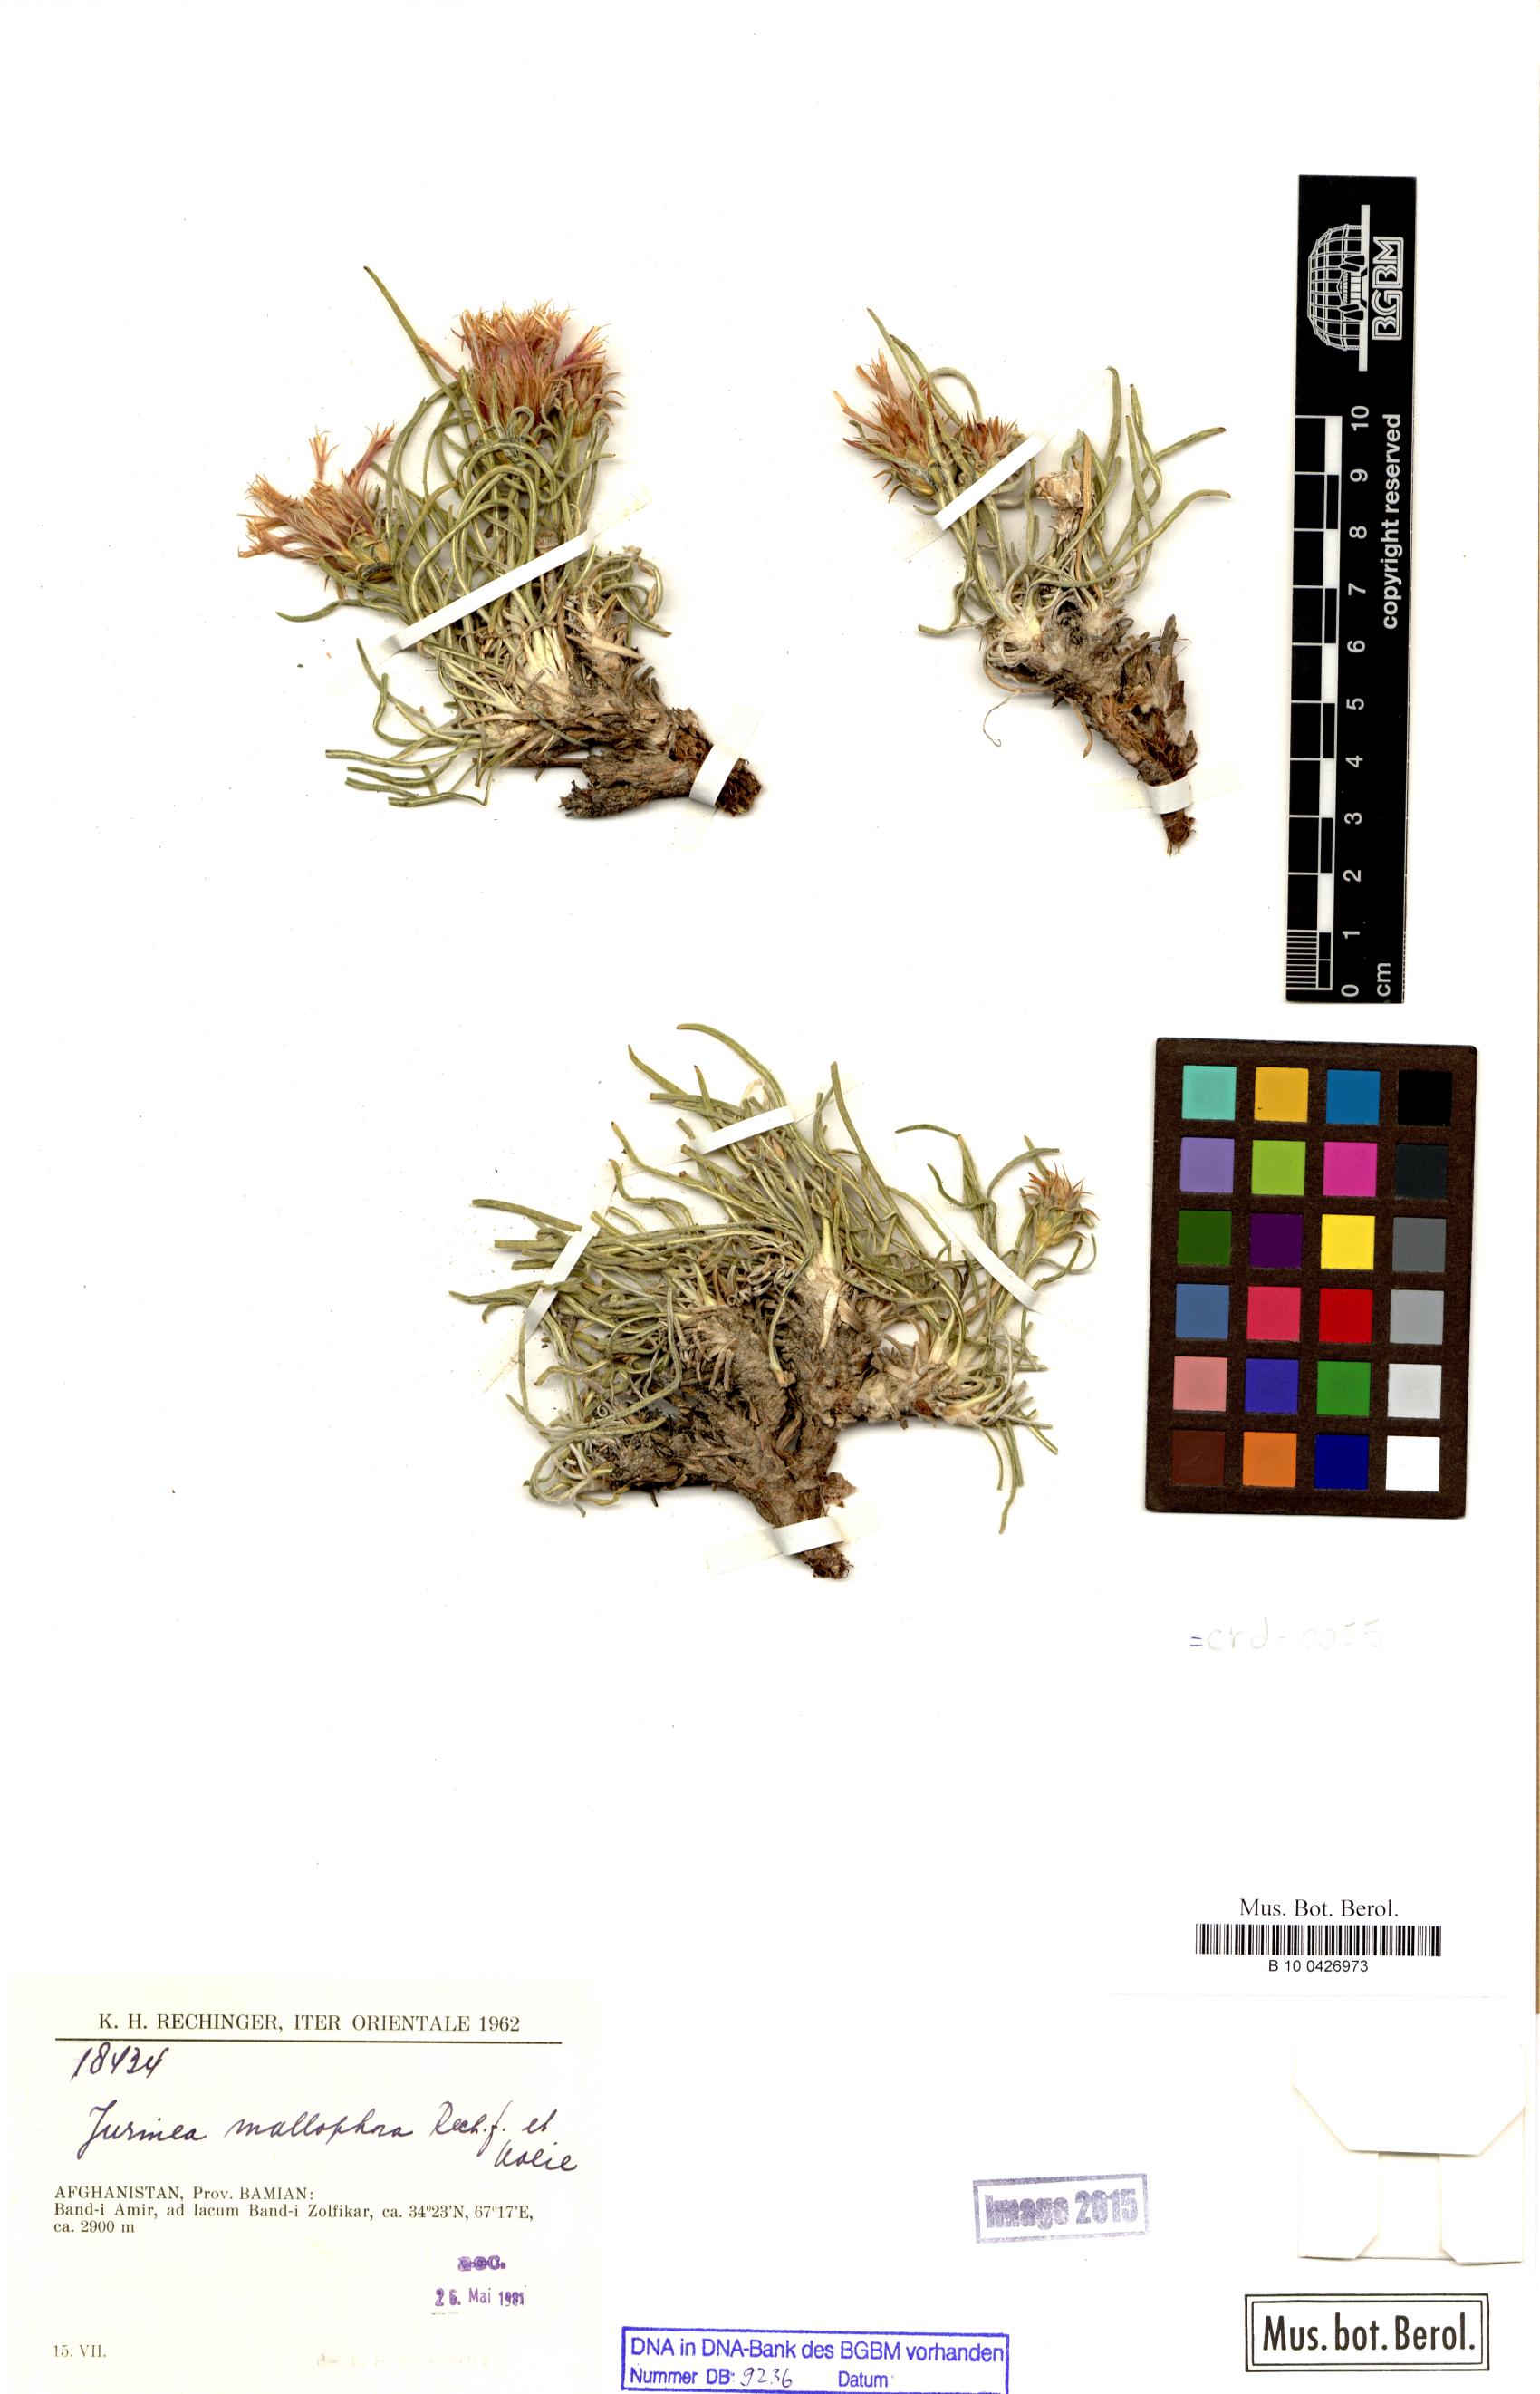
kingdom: Plantae
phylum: Tracheophyta
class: Magnoliopsida
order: Asterales
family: Asteraceae
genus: Jurinea
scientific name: Jurinea mallophora
